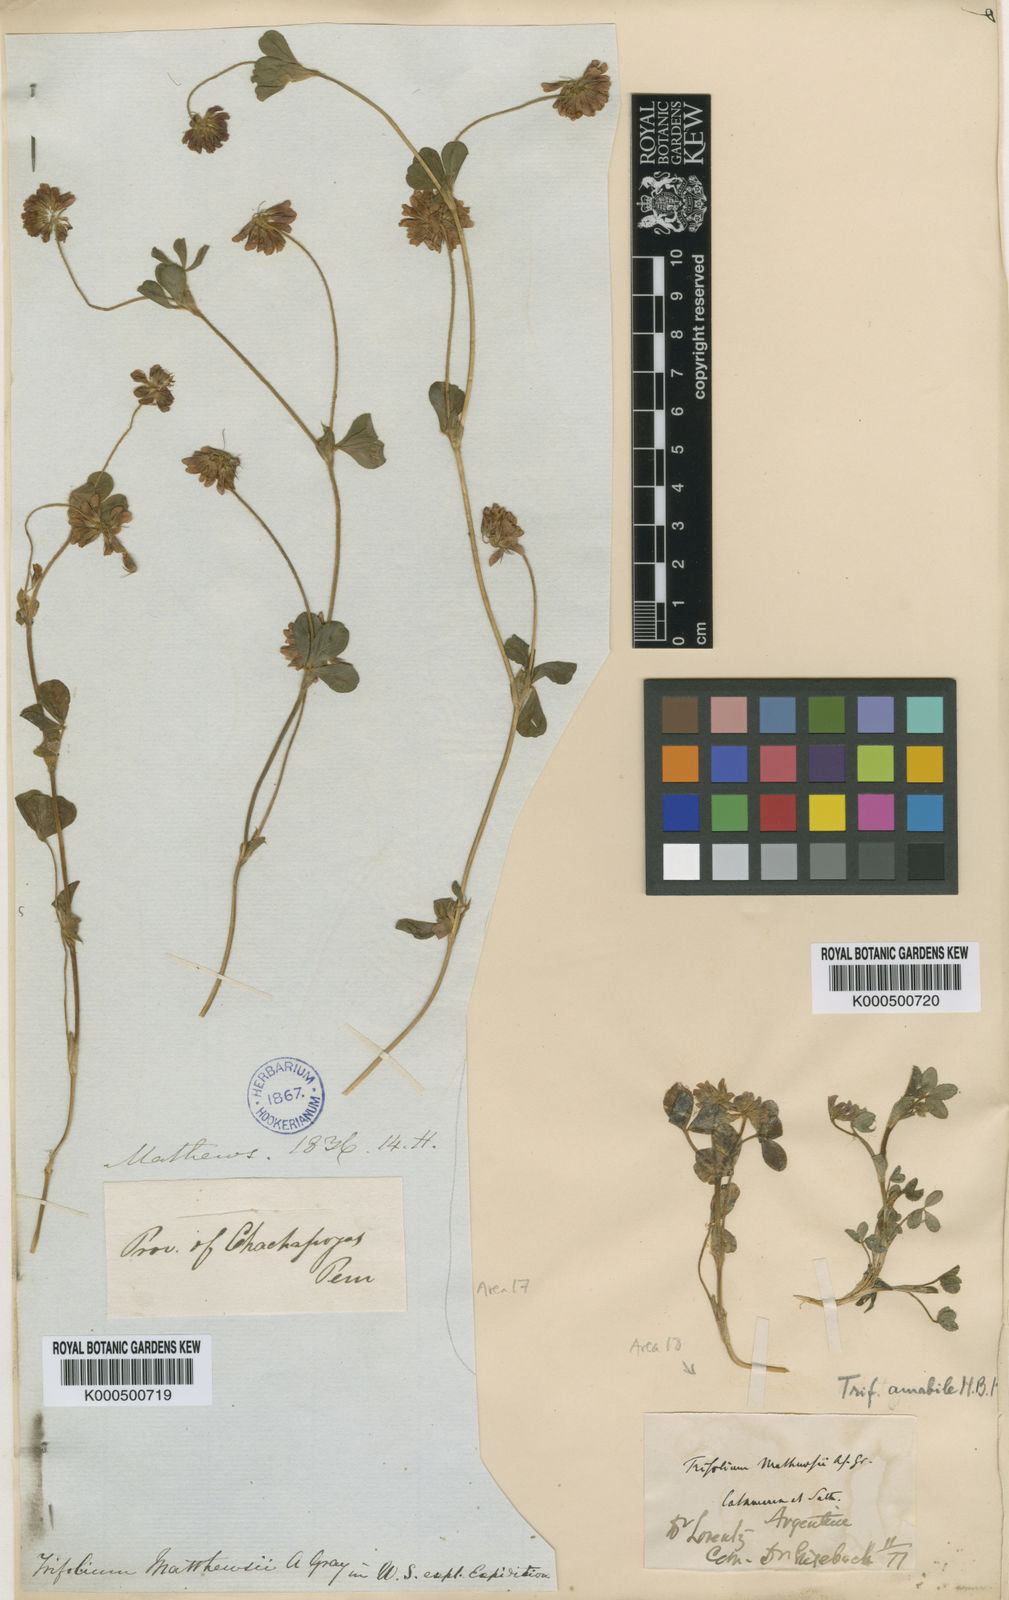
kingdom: Plantae
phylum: Tracheophyta
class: Magnoliopsida
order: Fabales
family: Fabaceae
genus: Trifolium
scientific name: Trifolium amabile
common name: Aztec clover
